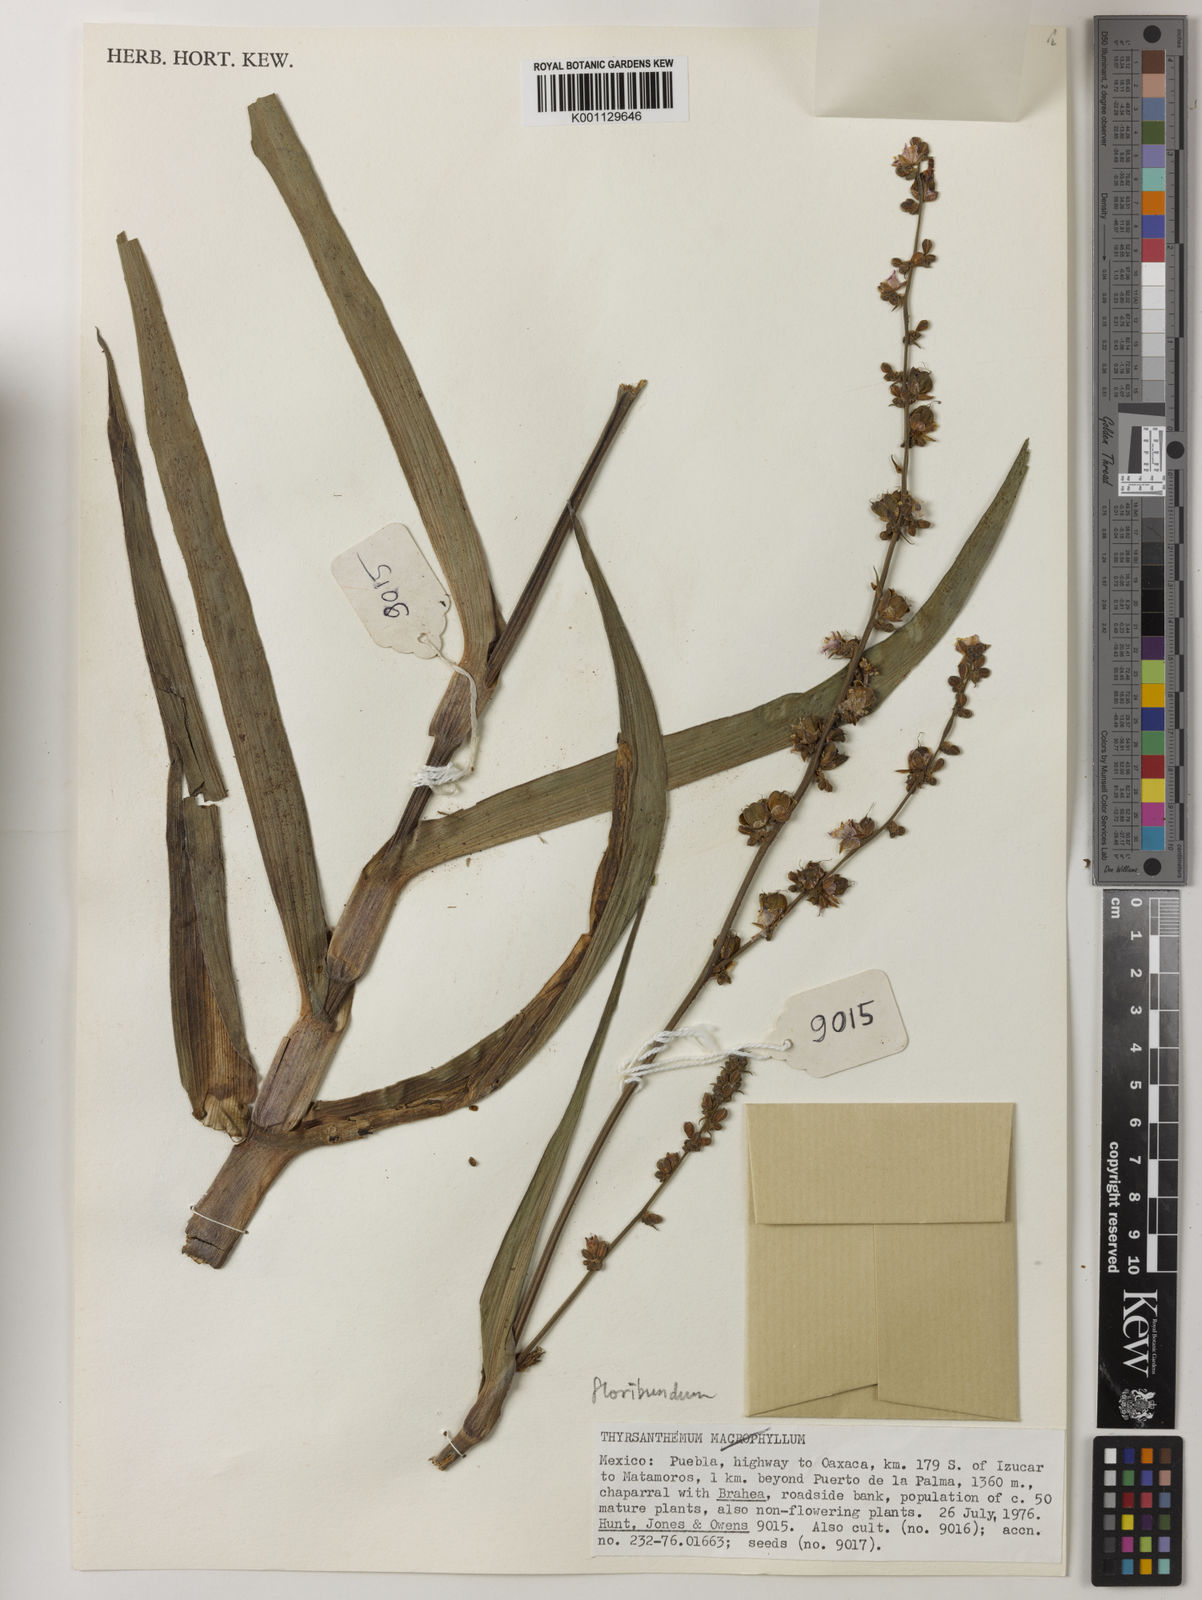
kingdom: Plantae
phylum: Tracheophyta
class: Liliopsida
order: Commelinales
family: Commelinaceae
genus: Thyrsanthemum
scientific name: Thyrsanthemum floribundum
